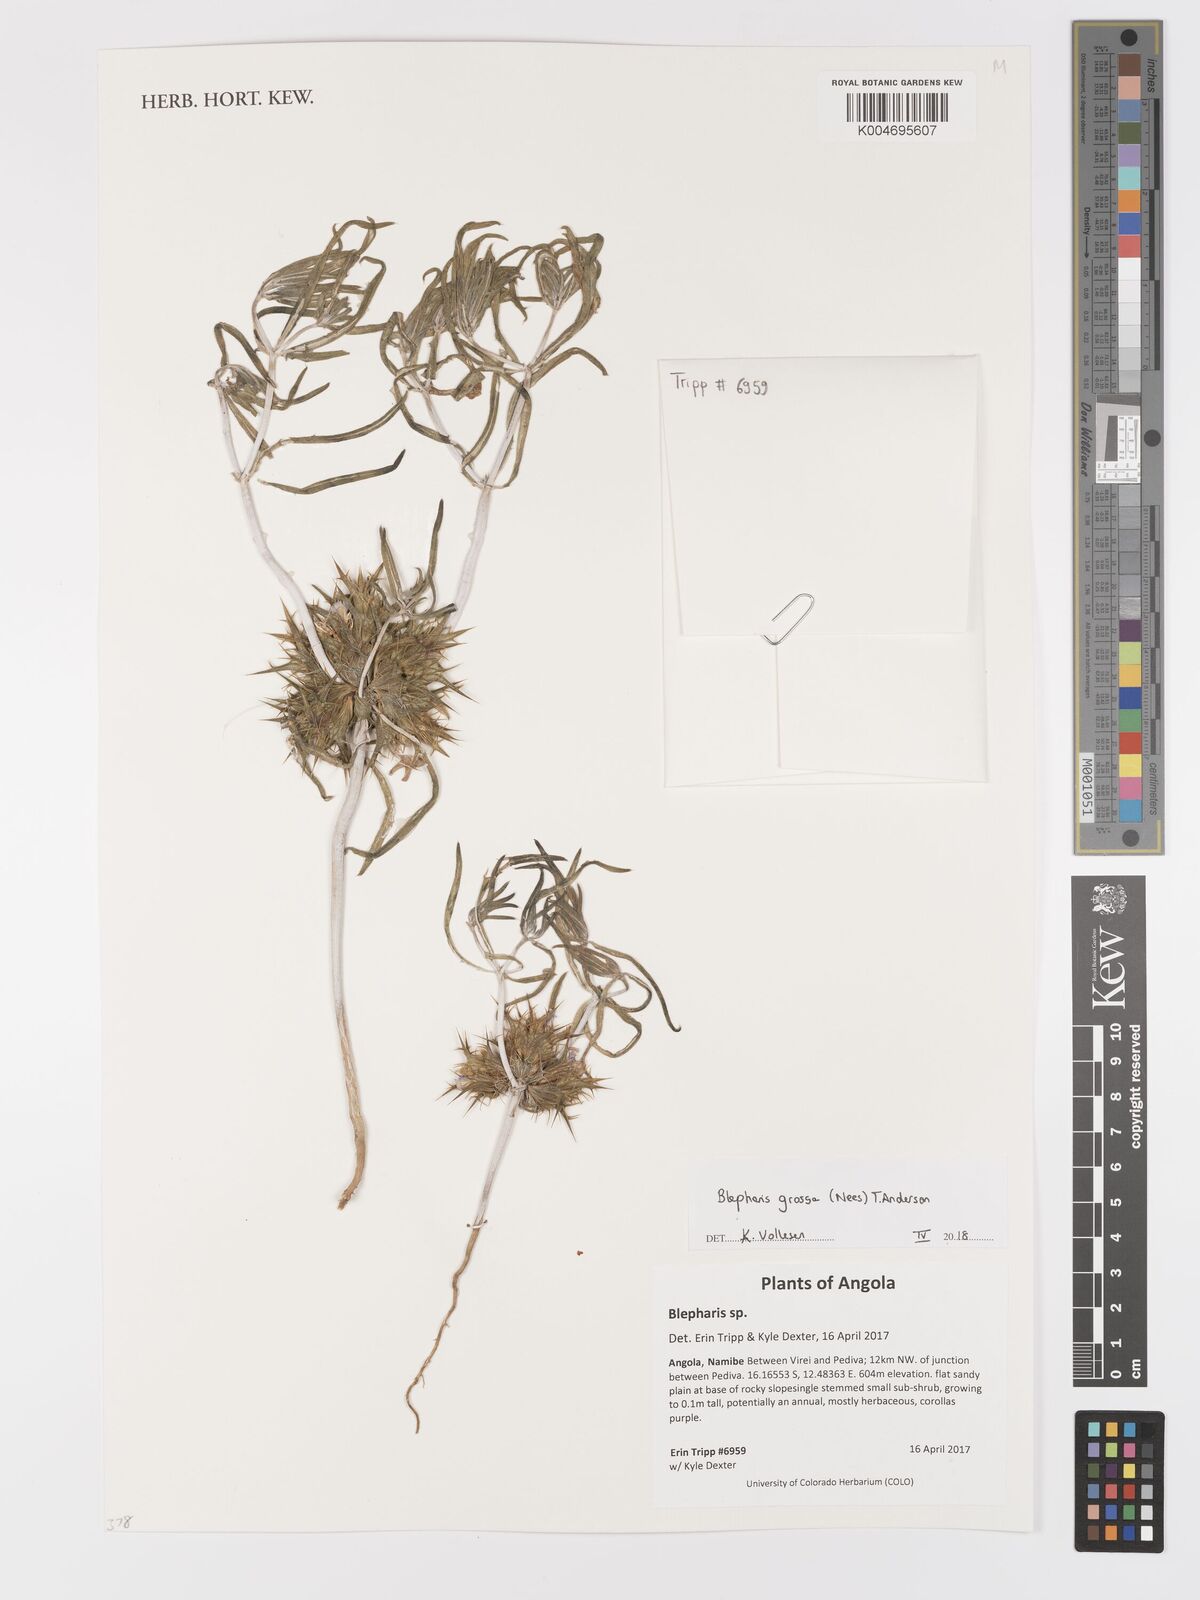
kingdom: Plantae
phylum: Tracheophyta
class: Magnoliopsida
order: Lamiales
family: Acanthaceae
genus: Blepharis
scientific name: Blepharis grossa
